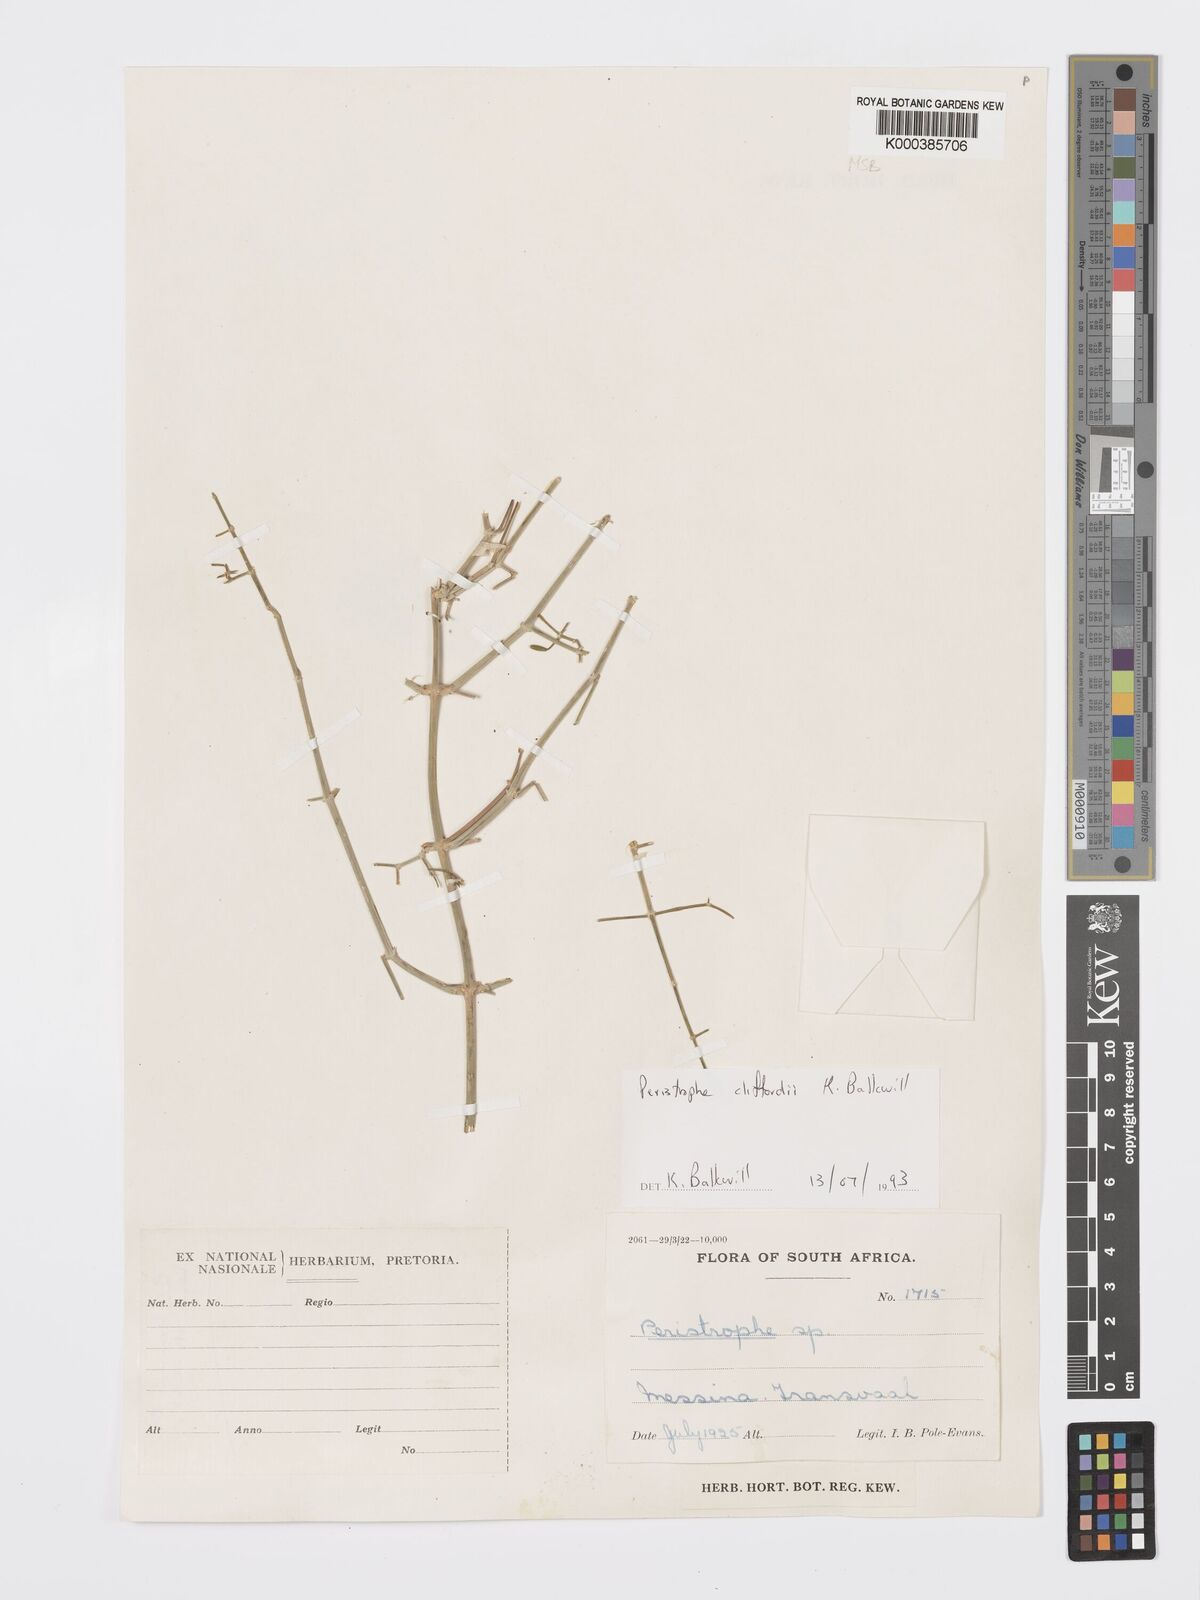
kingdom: Plantae
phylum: Tracheophyta
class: Magnoliopsida
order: Lamiales
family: Acanthaceae
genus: Dicliptera
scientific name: Dicliptera cliffordii
